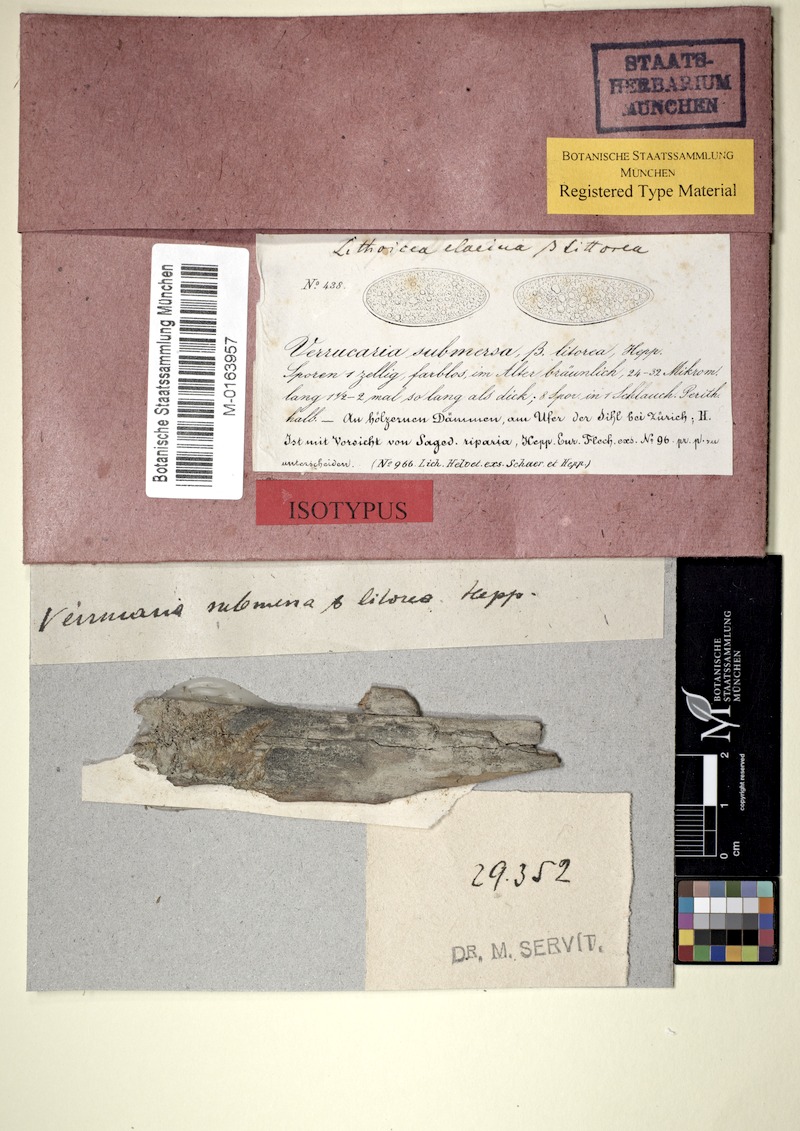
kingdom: Fungi
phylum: Ascomycota
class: Eurotiomycetes
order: Verrucariales
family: Verrucariaceae
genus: Verrucaria
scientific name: Verrucaria hydrela
